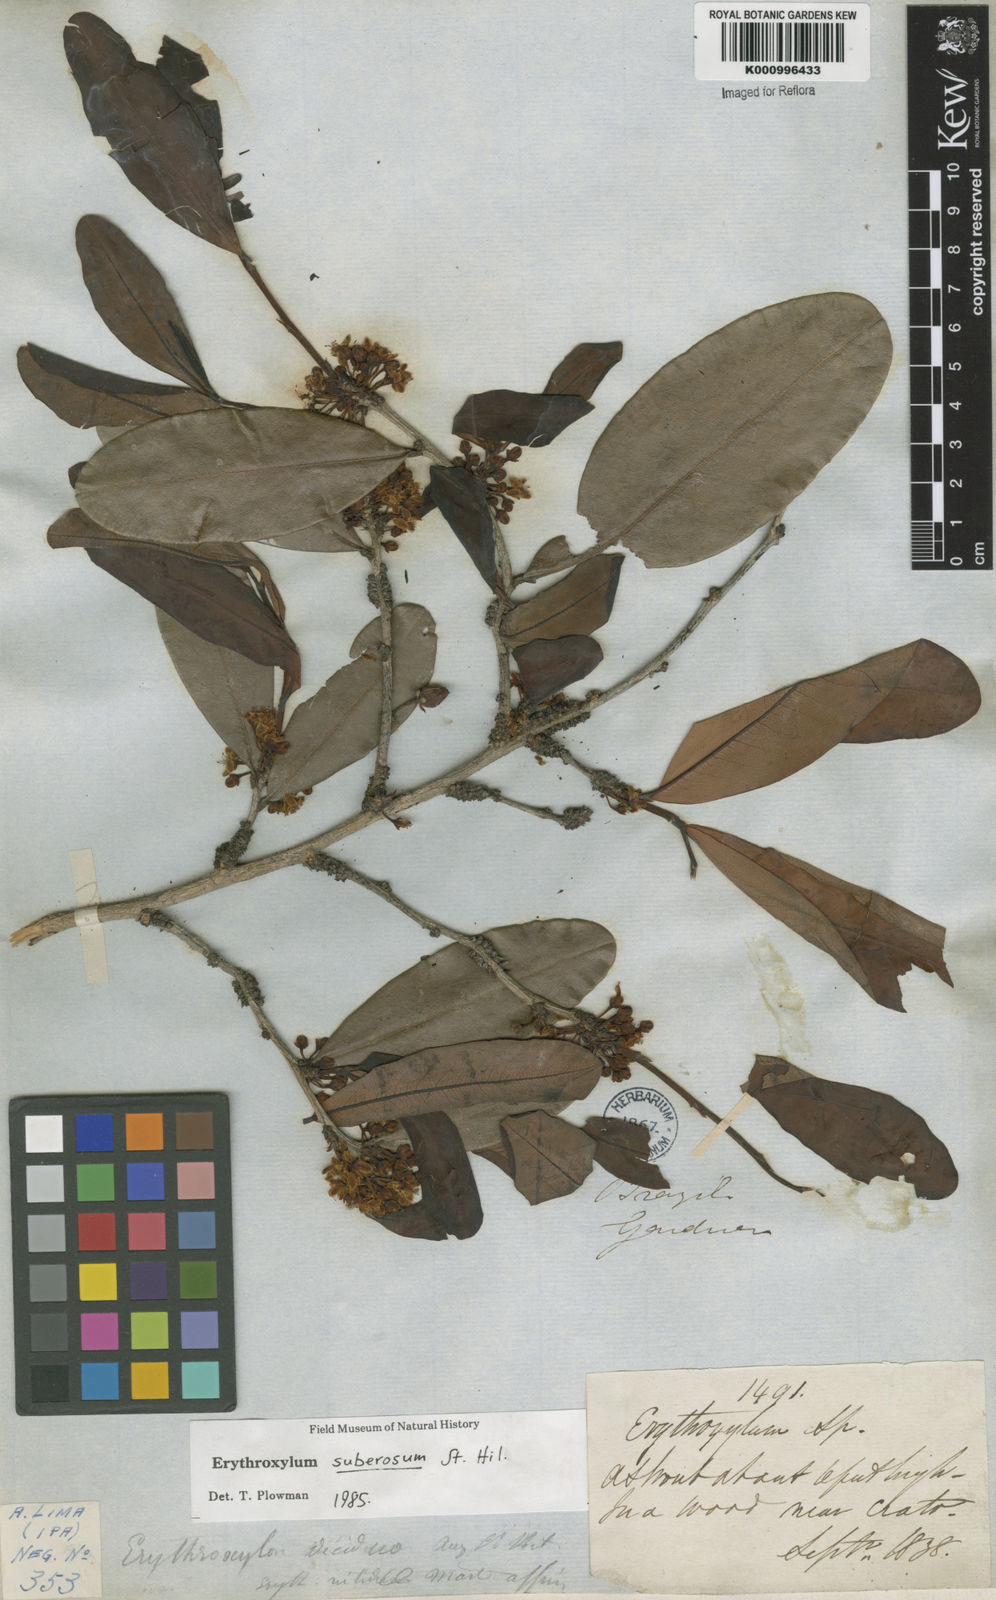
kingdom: Plantae
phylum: Tracheophyta
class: Magnoliopsida
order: Malpighiales
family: Erythroxylaceae
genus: Erythroxylum
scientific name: Erythroxylum suberosum
